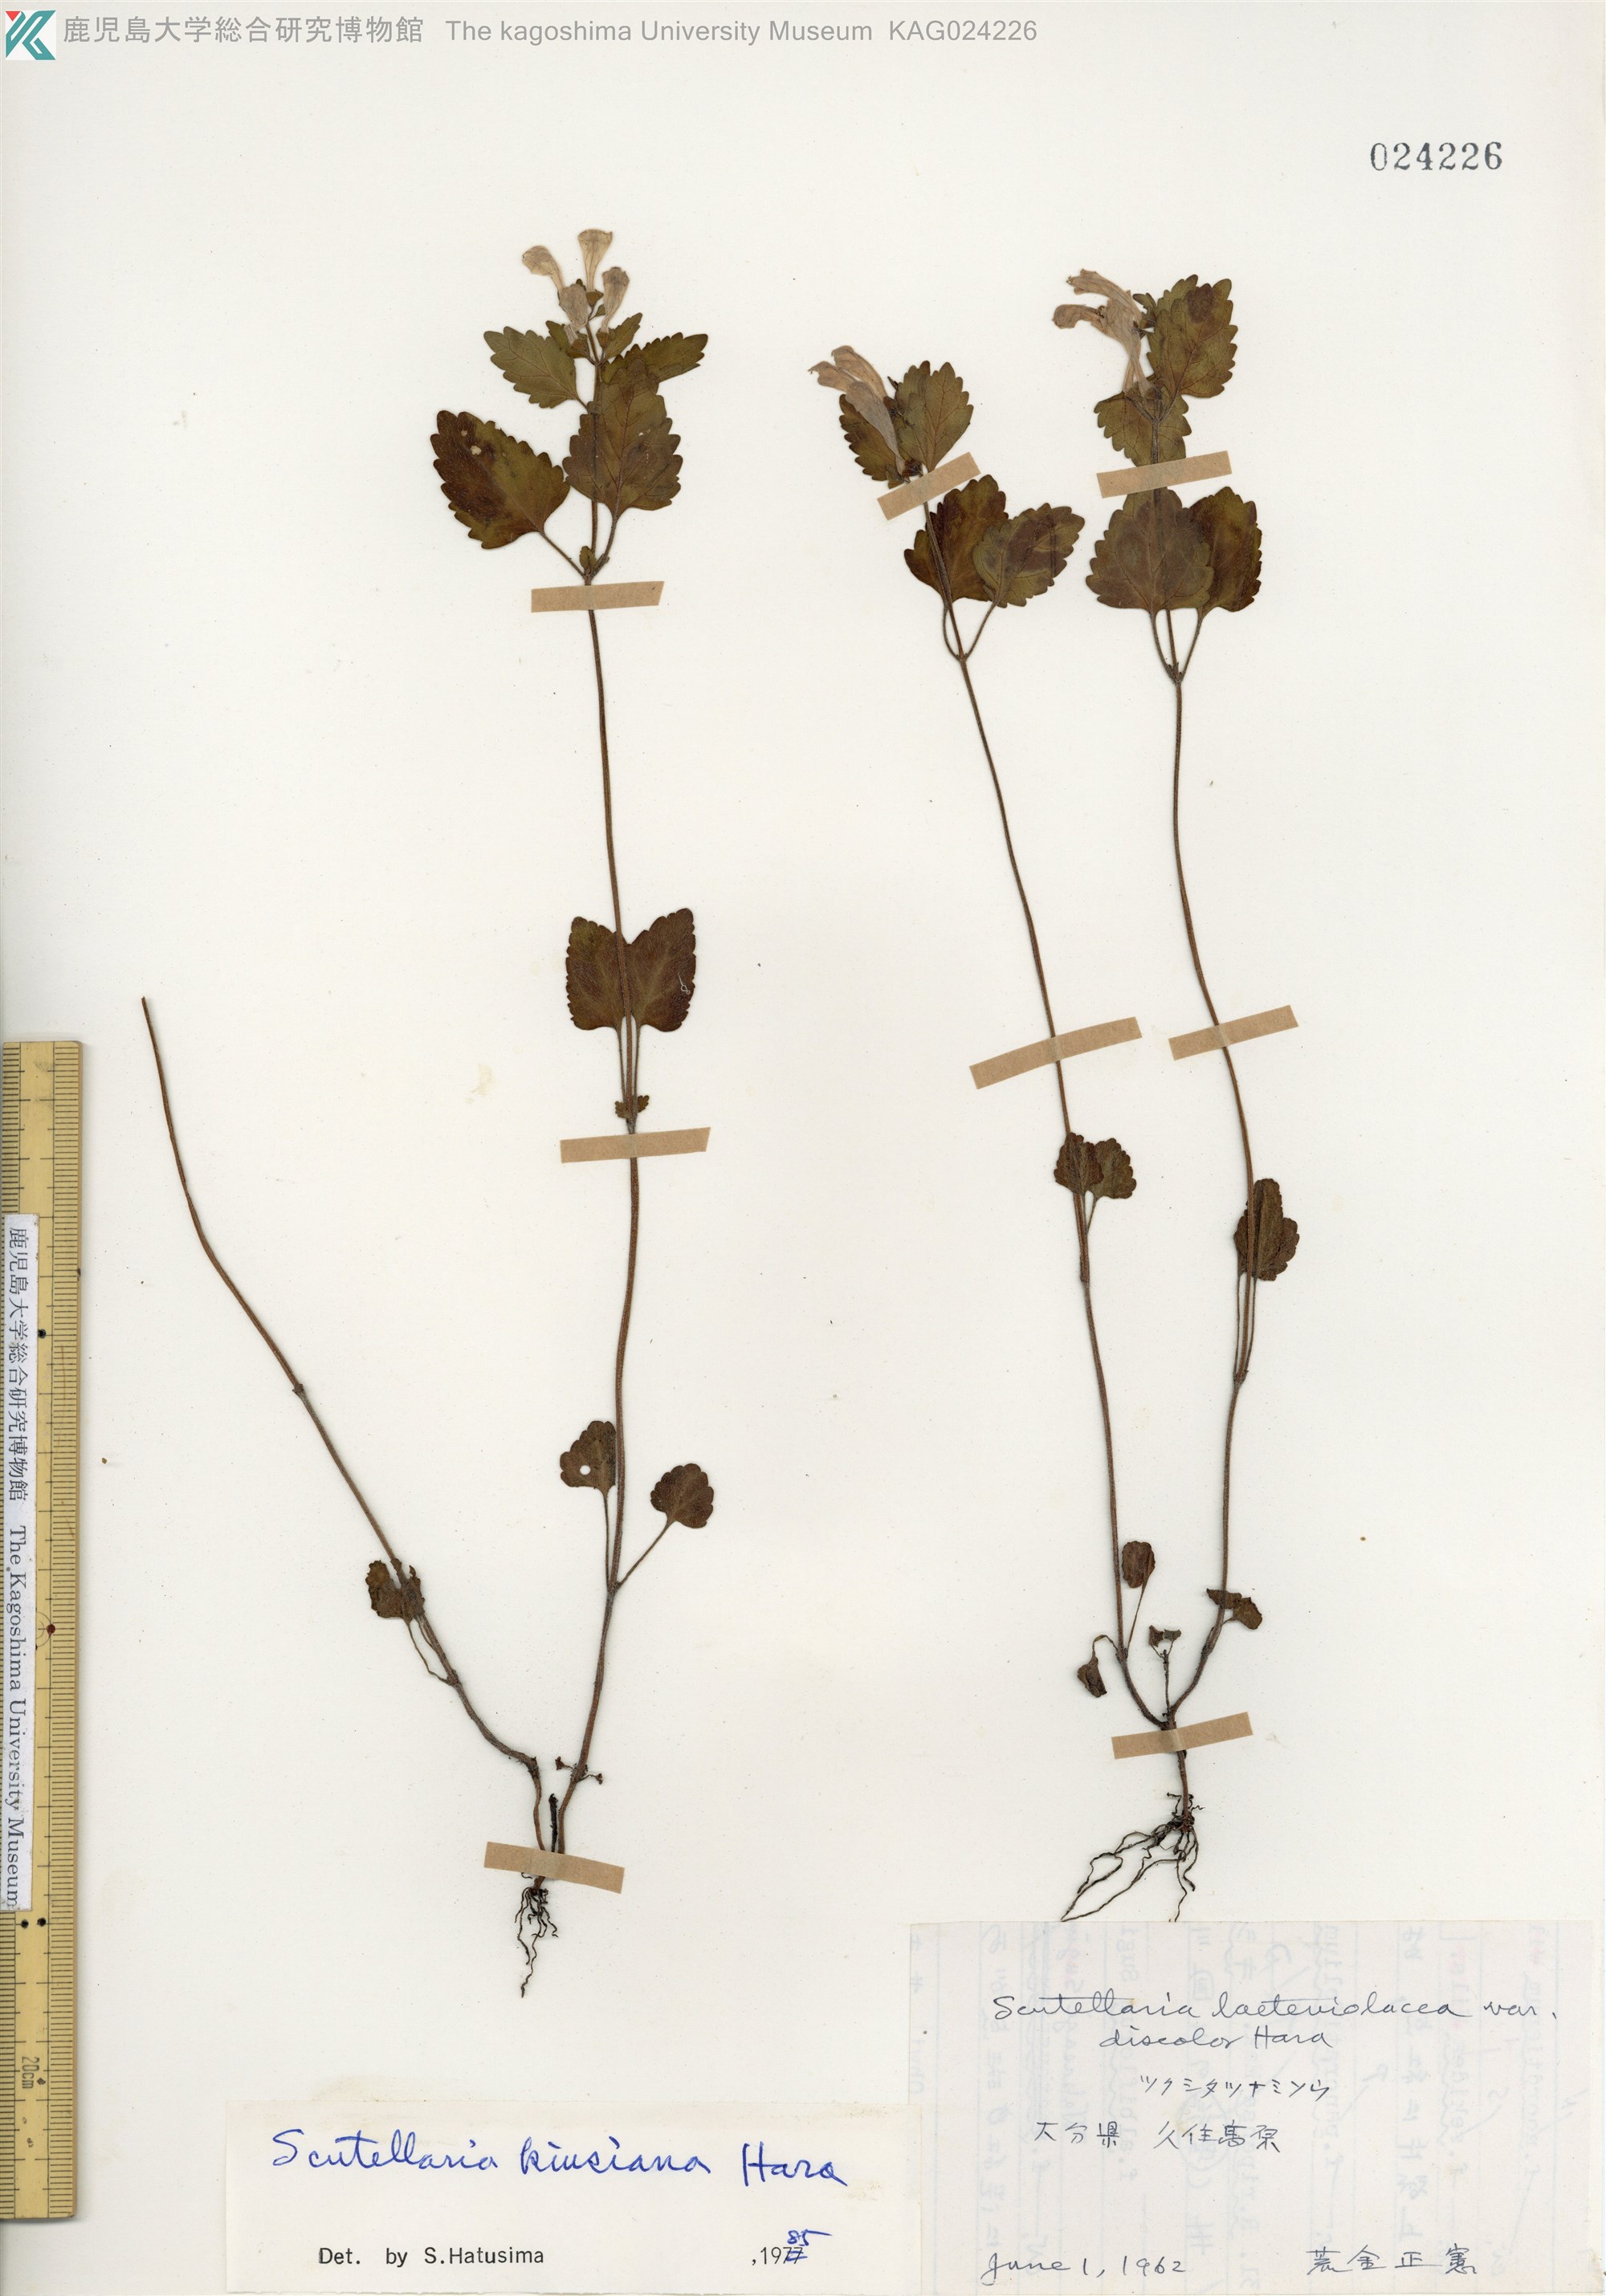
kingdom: Plantae
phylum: Tracheophyta
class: Magnoliopsida
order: Lamiales
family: Lamiaceae
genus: Scutellaria
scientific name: Scutellaria kiusiana
